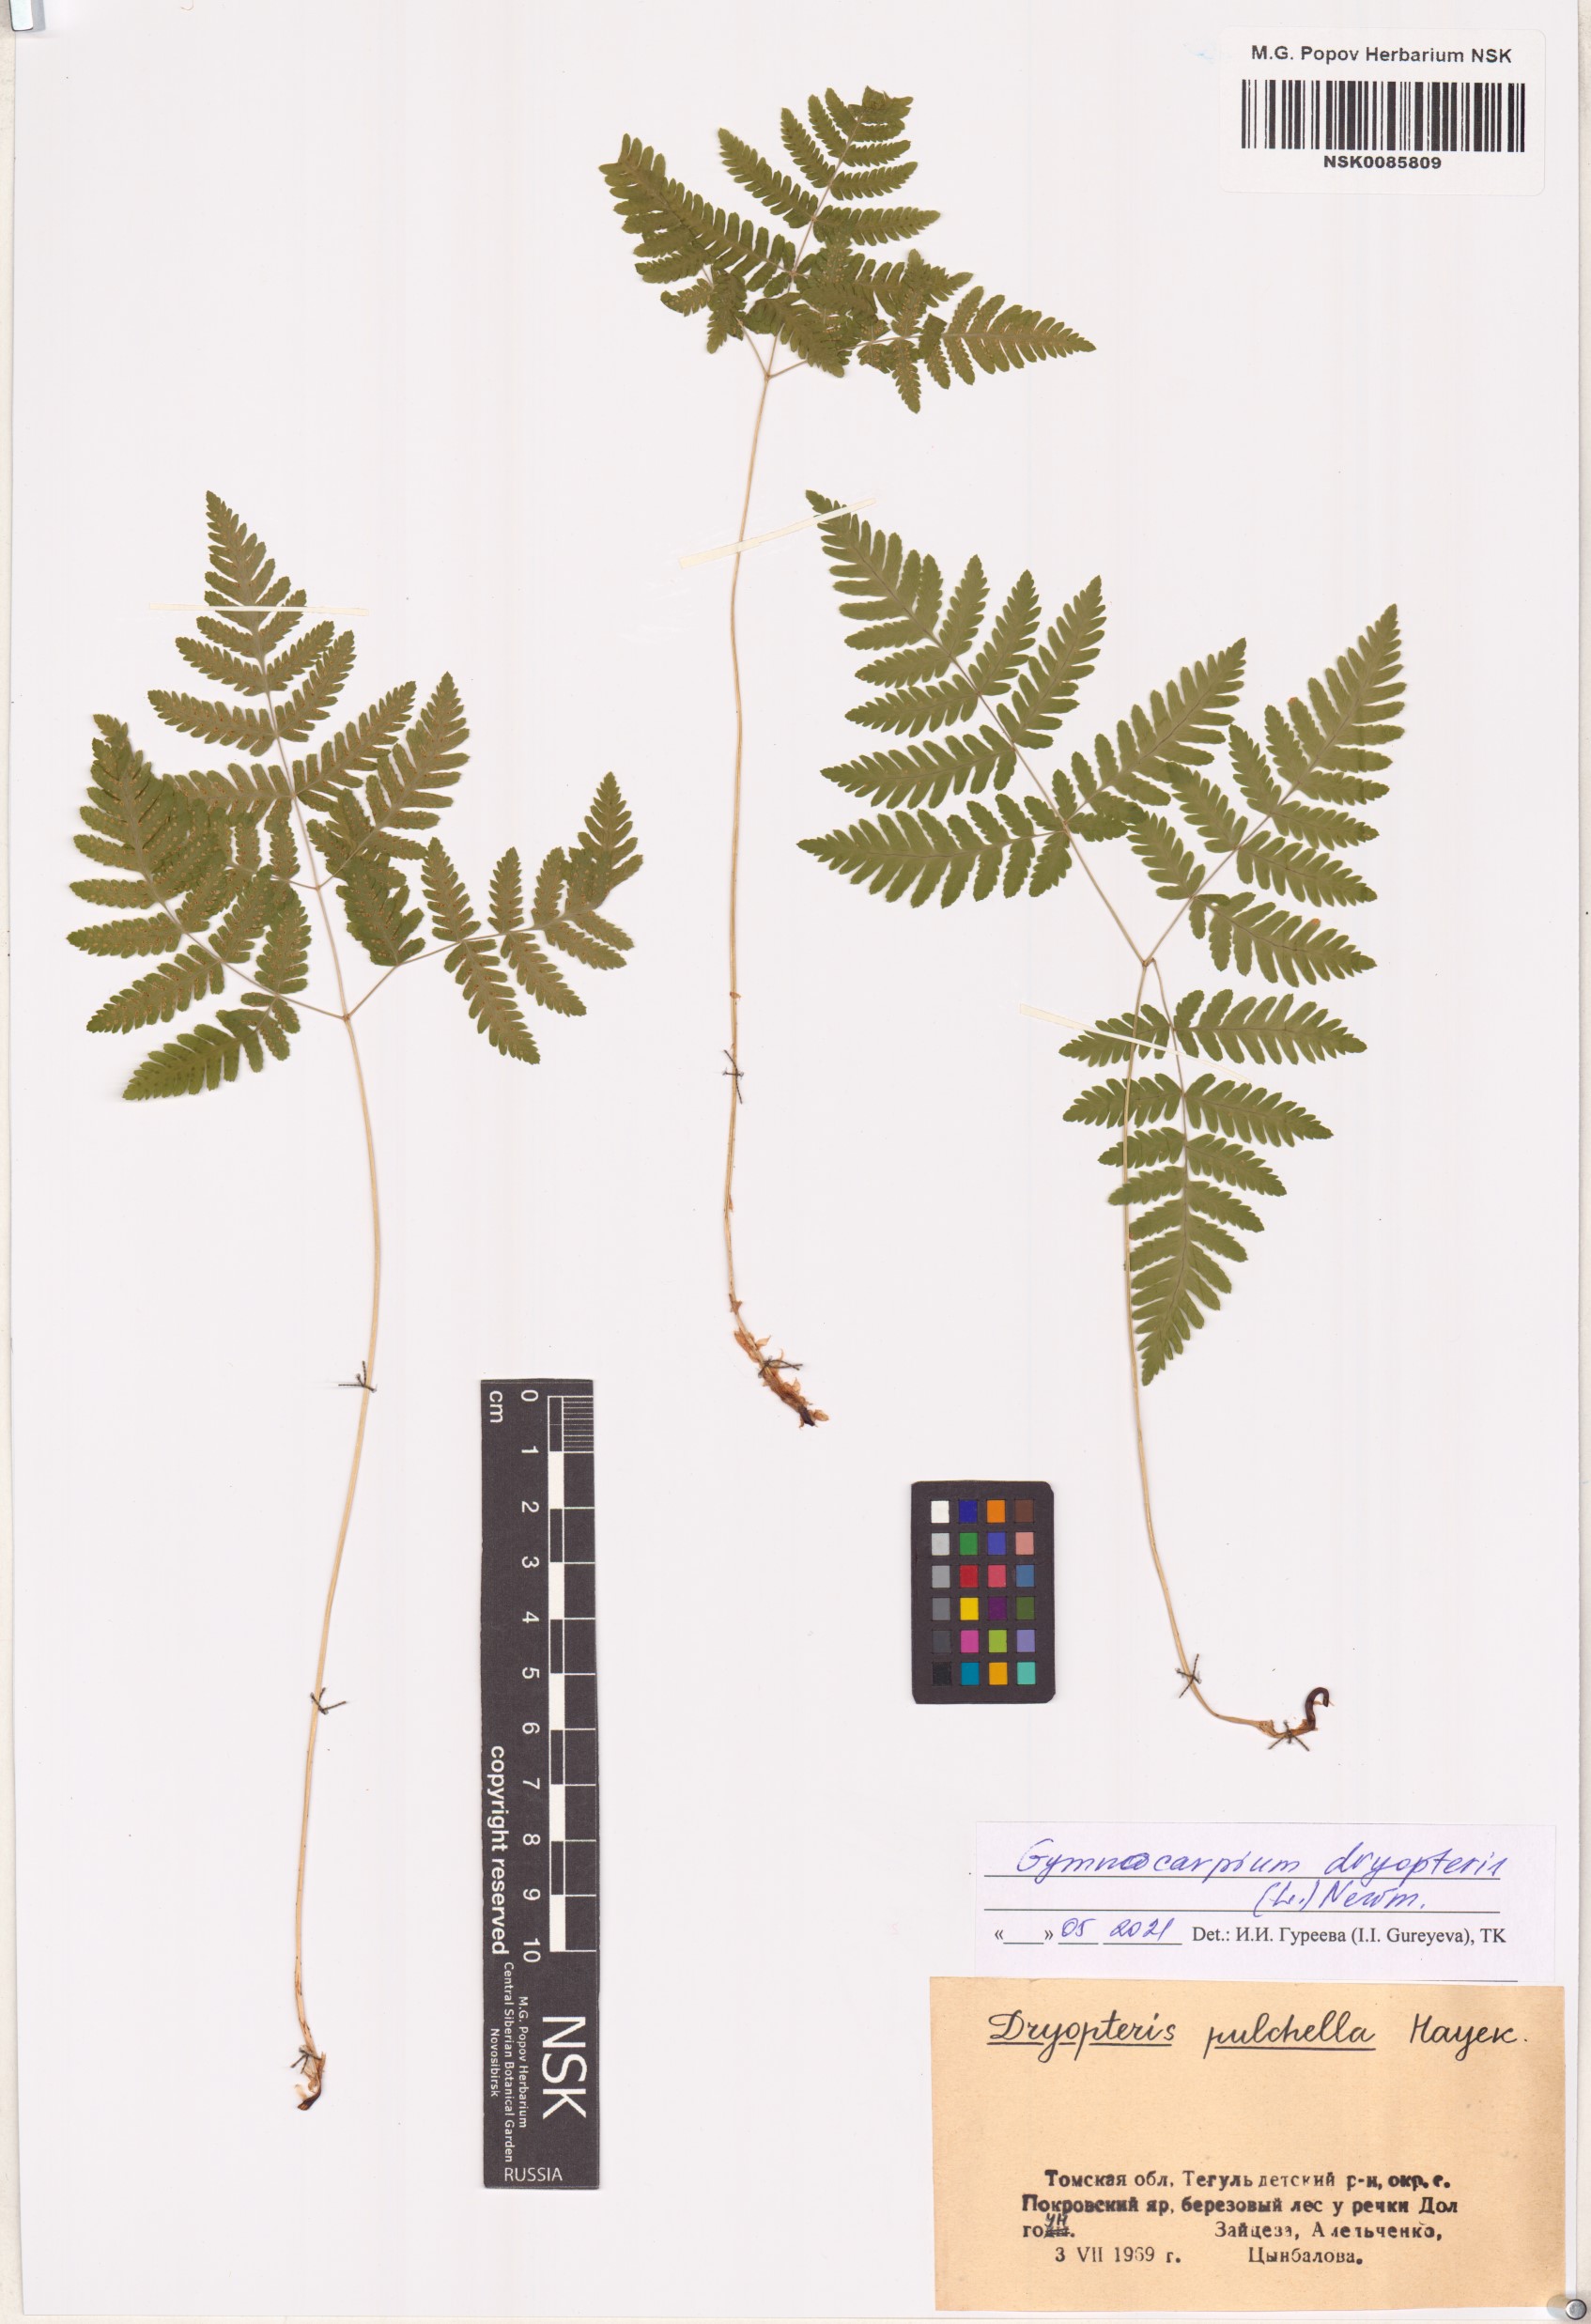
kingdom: Plantae
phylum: Tracheophyta
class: Polypodiopsida
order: Polypodiales
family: Cystopteridaceae
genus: Gymnocarpium
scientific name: Gymnocarpium dryopteris
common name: Oak fern
